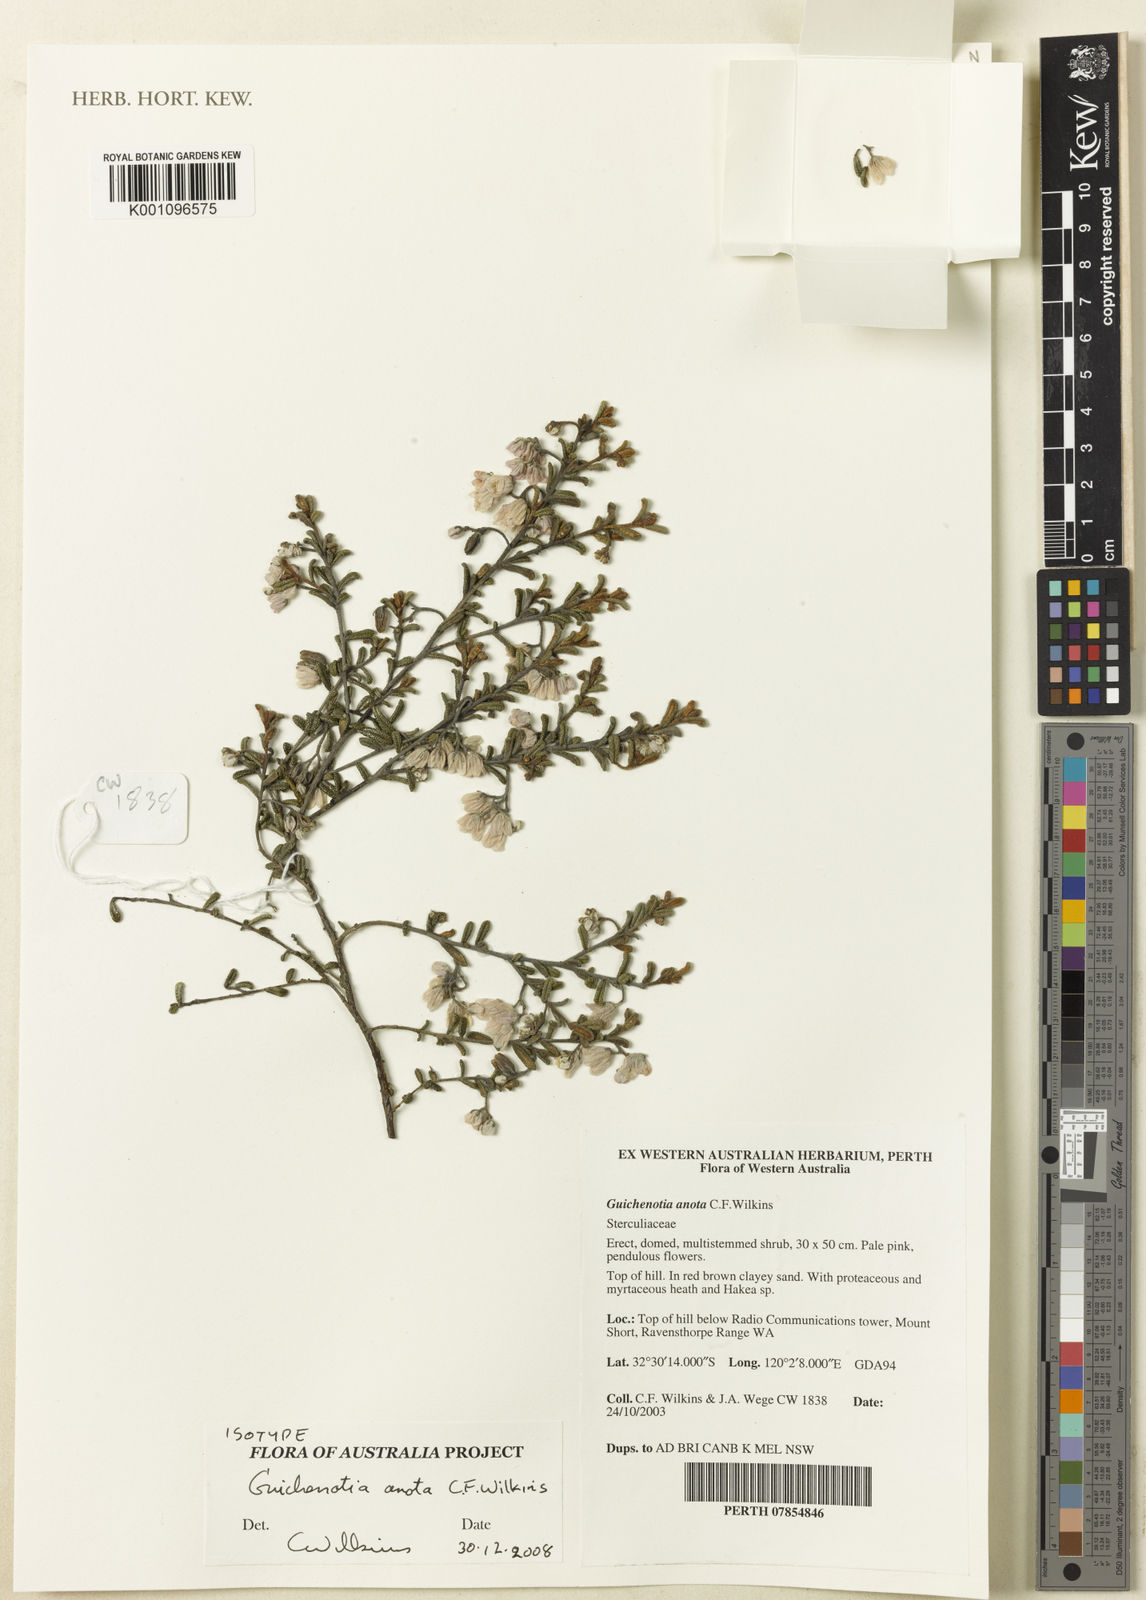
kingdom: Plantae
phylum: Tracheophyta
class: Magnoliopsida
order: Malvales
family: Malvaceae
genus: Guichenotia
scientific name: Guichenotia anota
